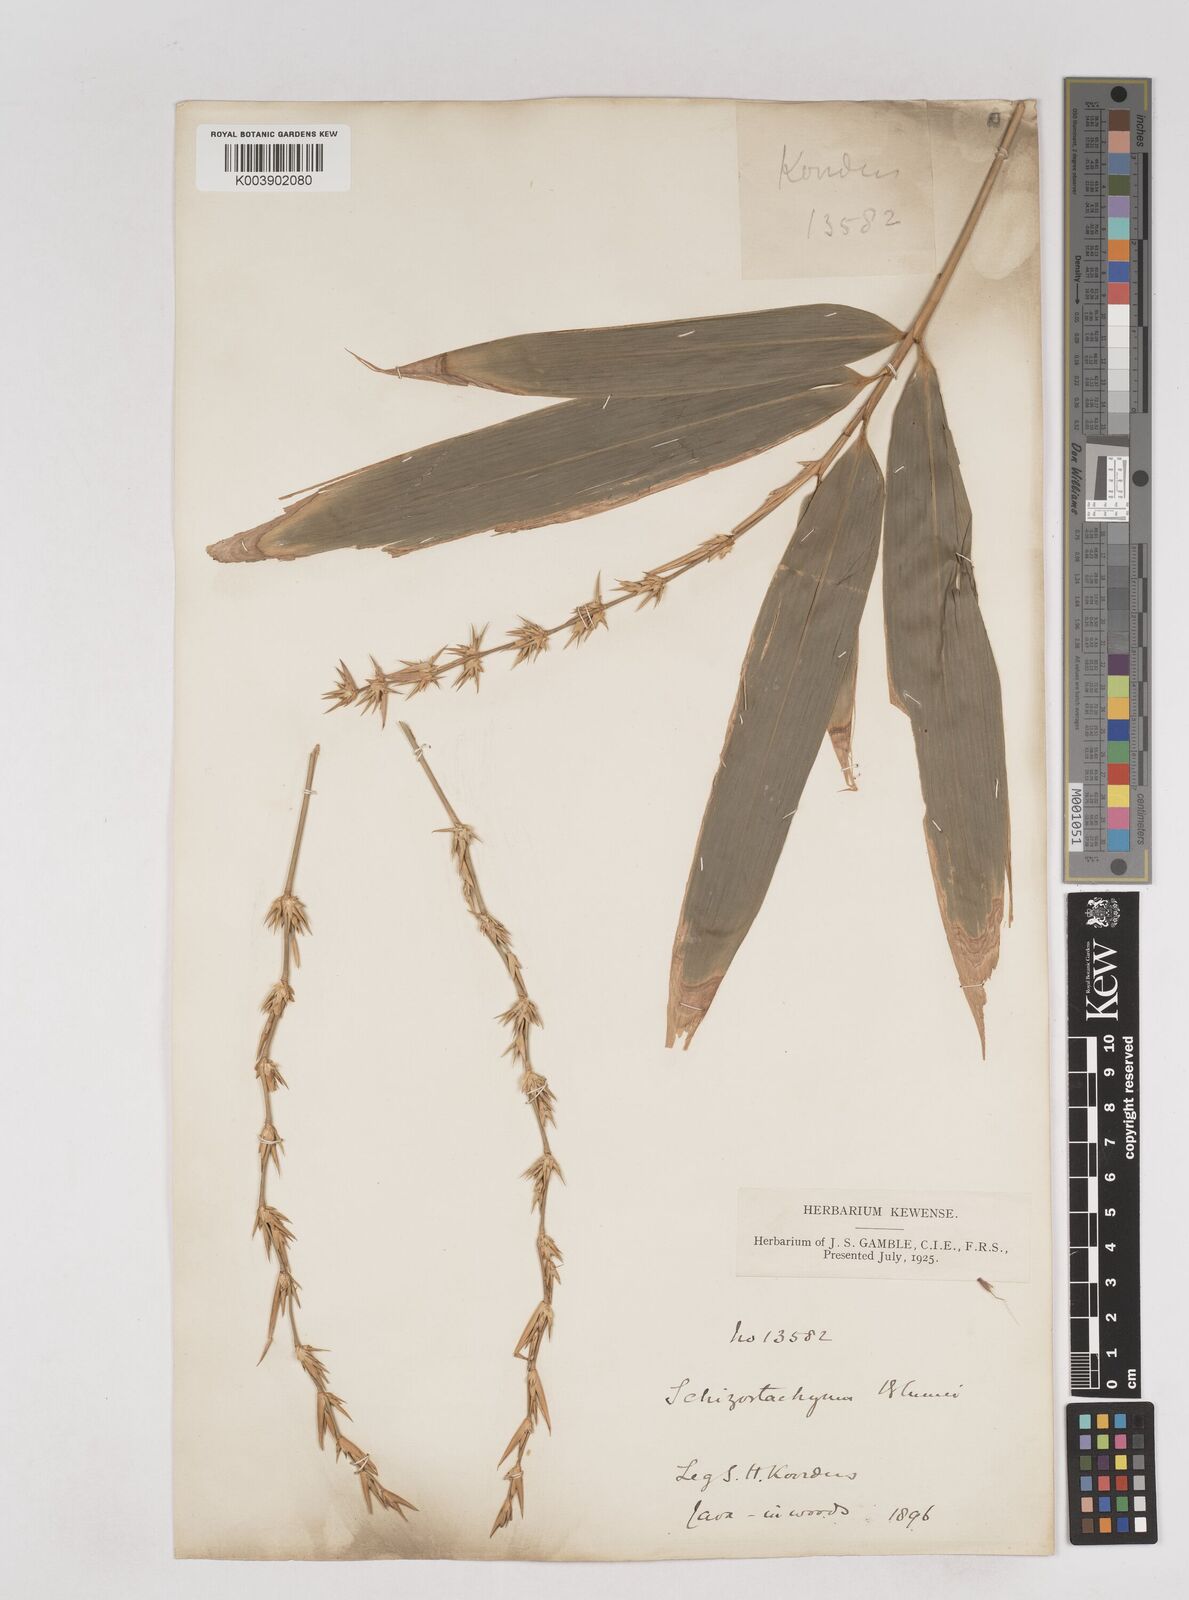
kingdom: Plantae
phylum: Tracheophyta
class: Liliopsida
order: Poales
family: Poaceae
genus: Schizostachyum
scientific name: Schizostachyum
